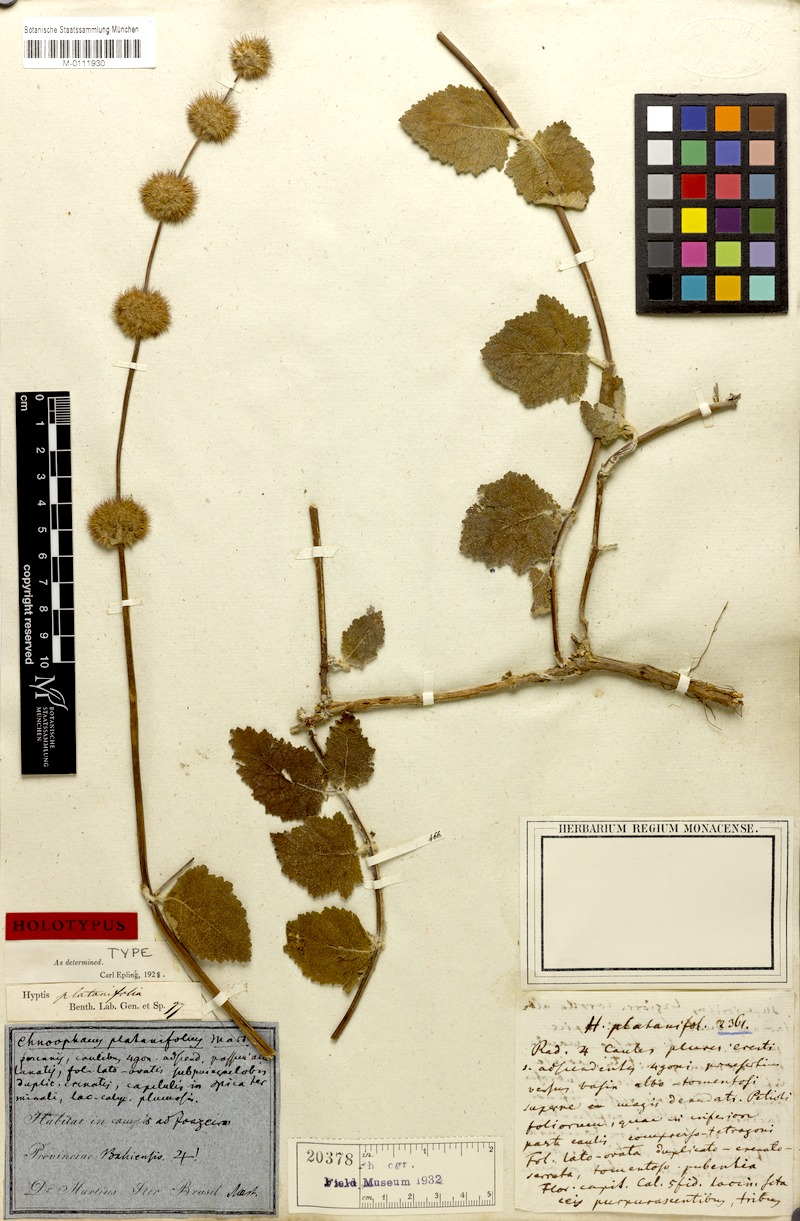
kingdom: Plantae
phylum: Tracheophyta
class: Magnoliopsida
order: Lamiales
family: Lamiaceae
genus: Gymneia
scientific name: Gymneia platanifolia
